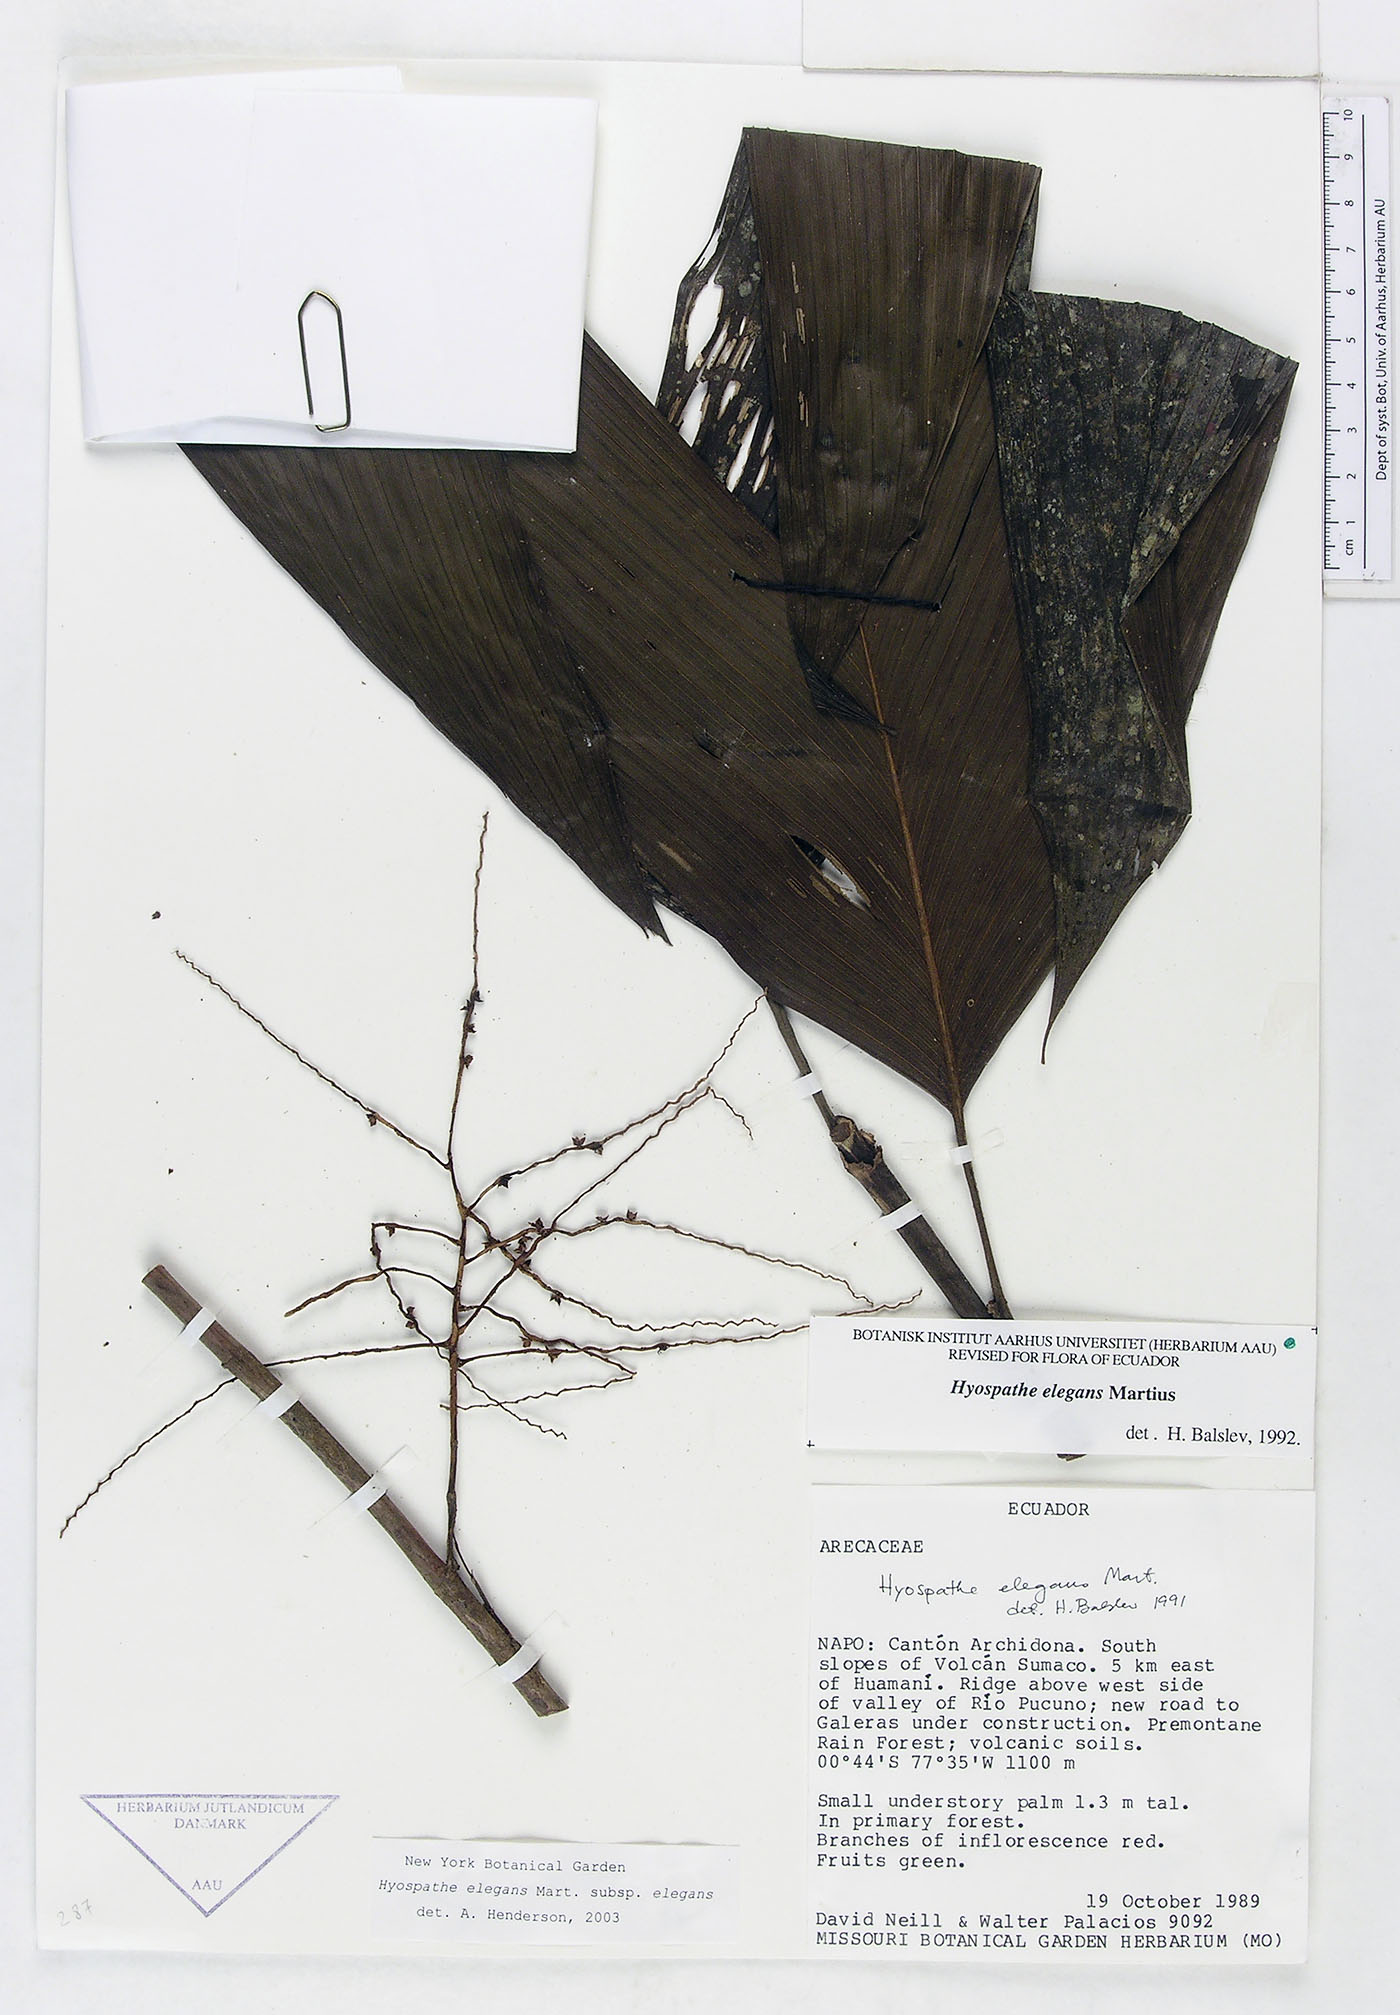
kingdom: Plantae
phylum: Tracheophyta
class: Liliopsida
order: Arecales
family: Arecaceae
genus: Hyospathe
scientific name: Hyospathe elegans
